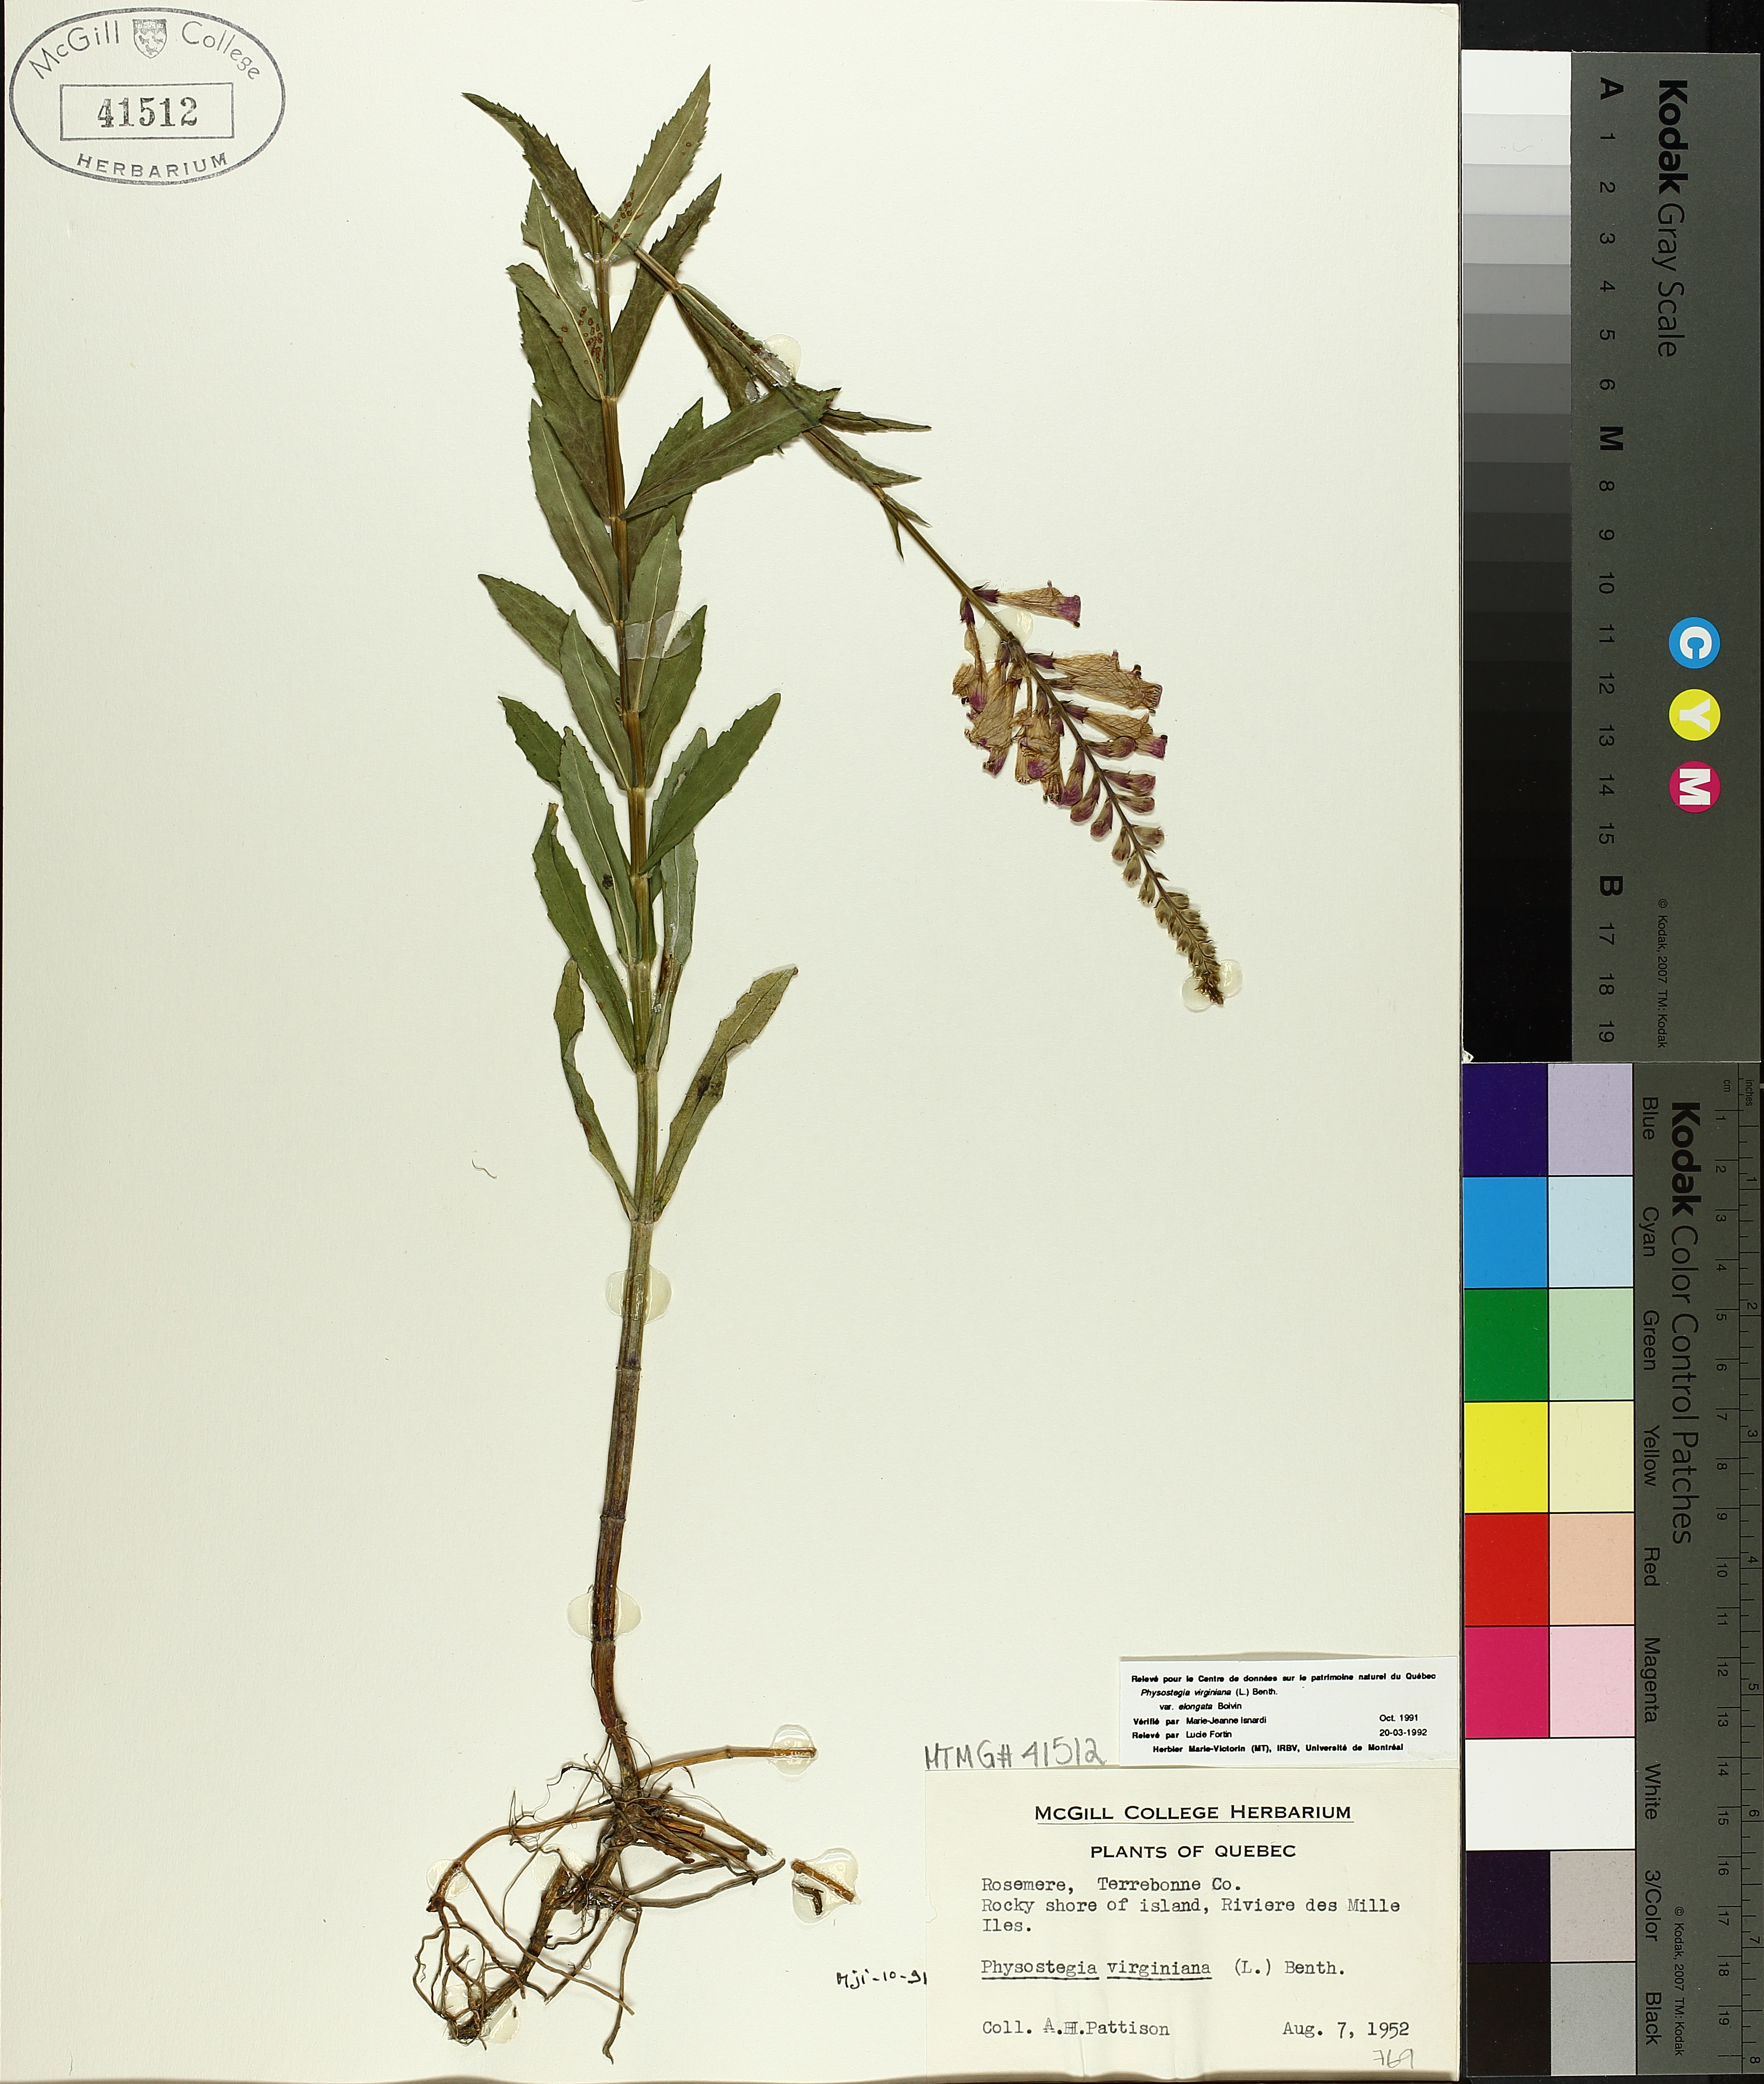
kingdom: Plantae
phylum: Tracheophyta
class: Magnoliopsida
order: Lamiales
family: Lamiaceae
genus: Physostegia
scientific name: Physostegia virginiana
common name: Obedient-plant
